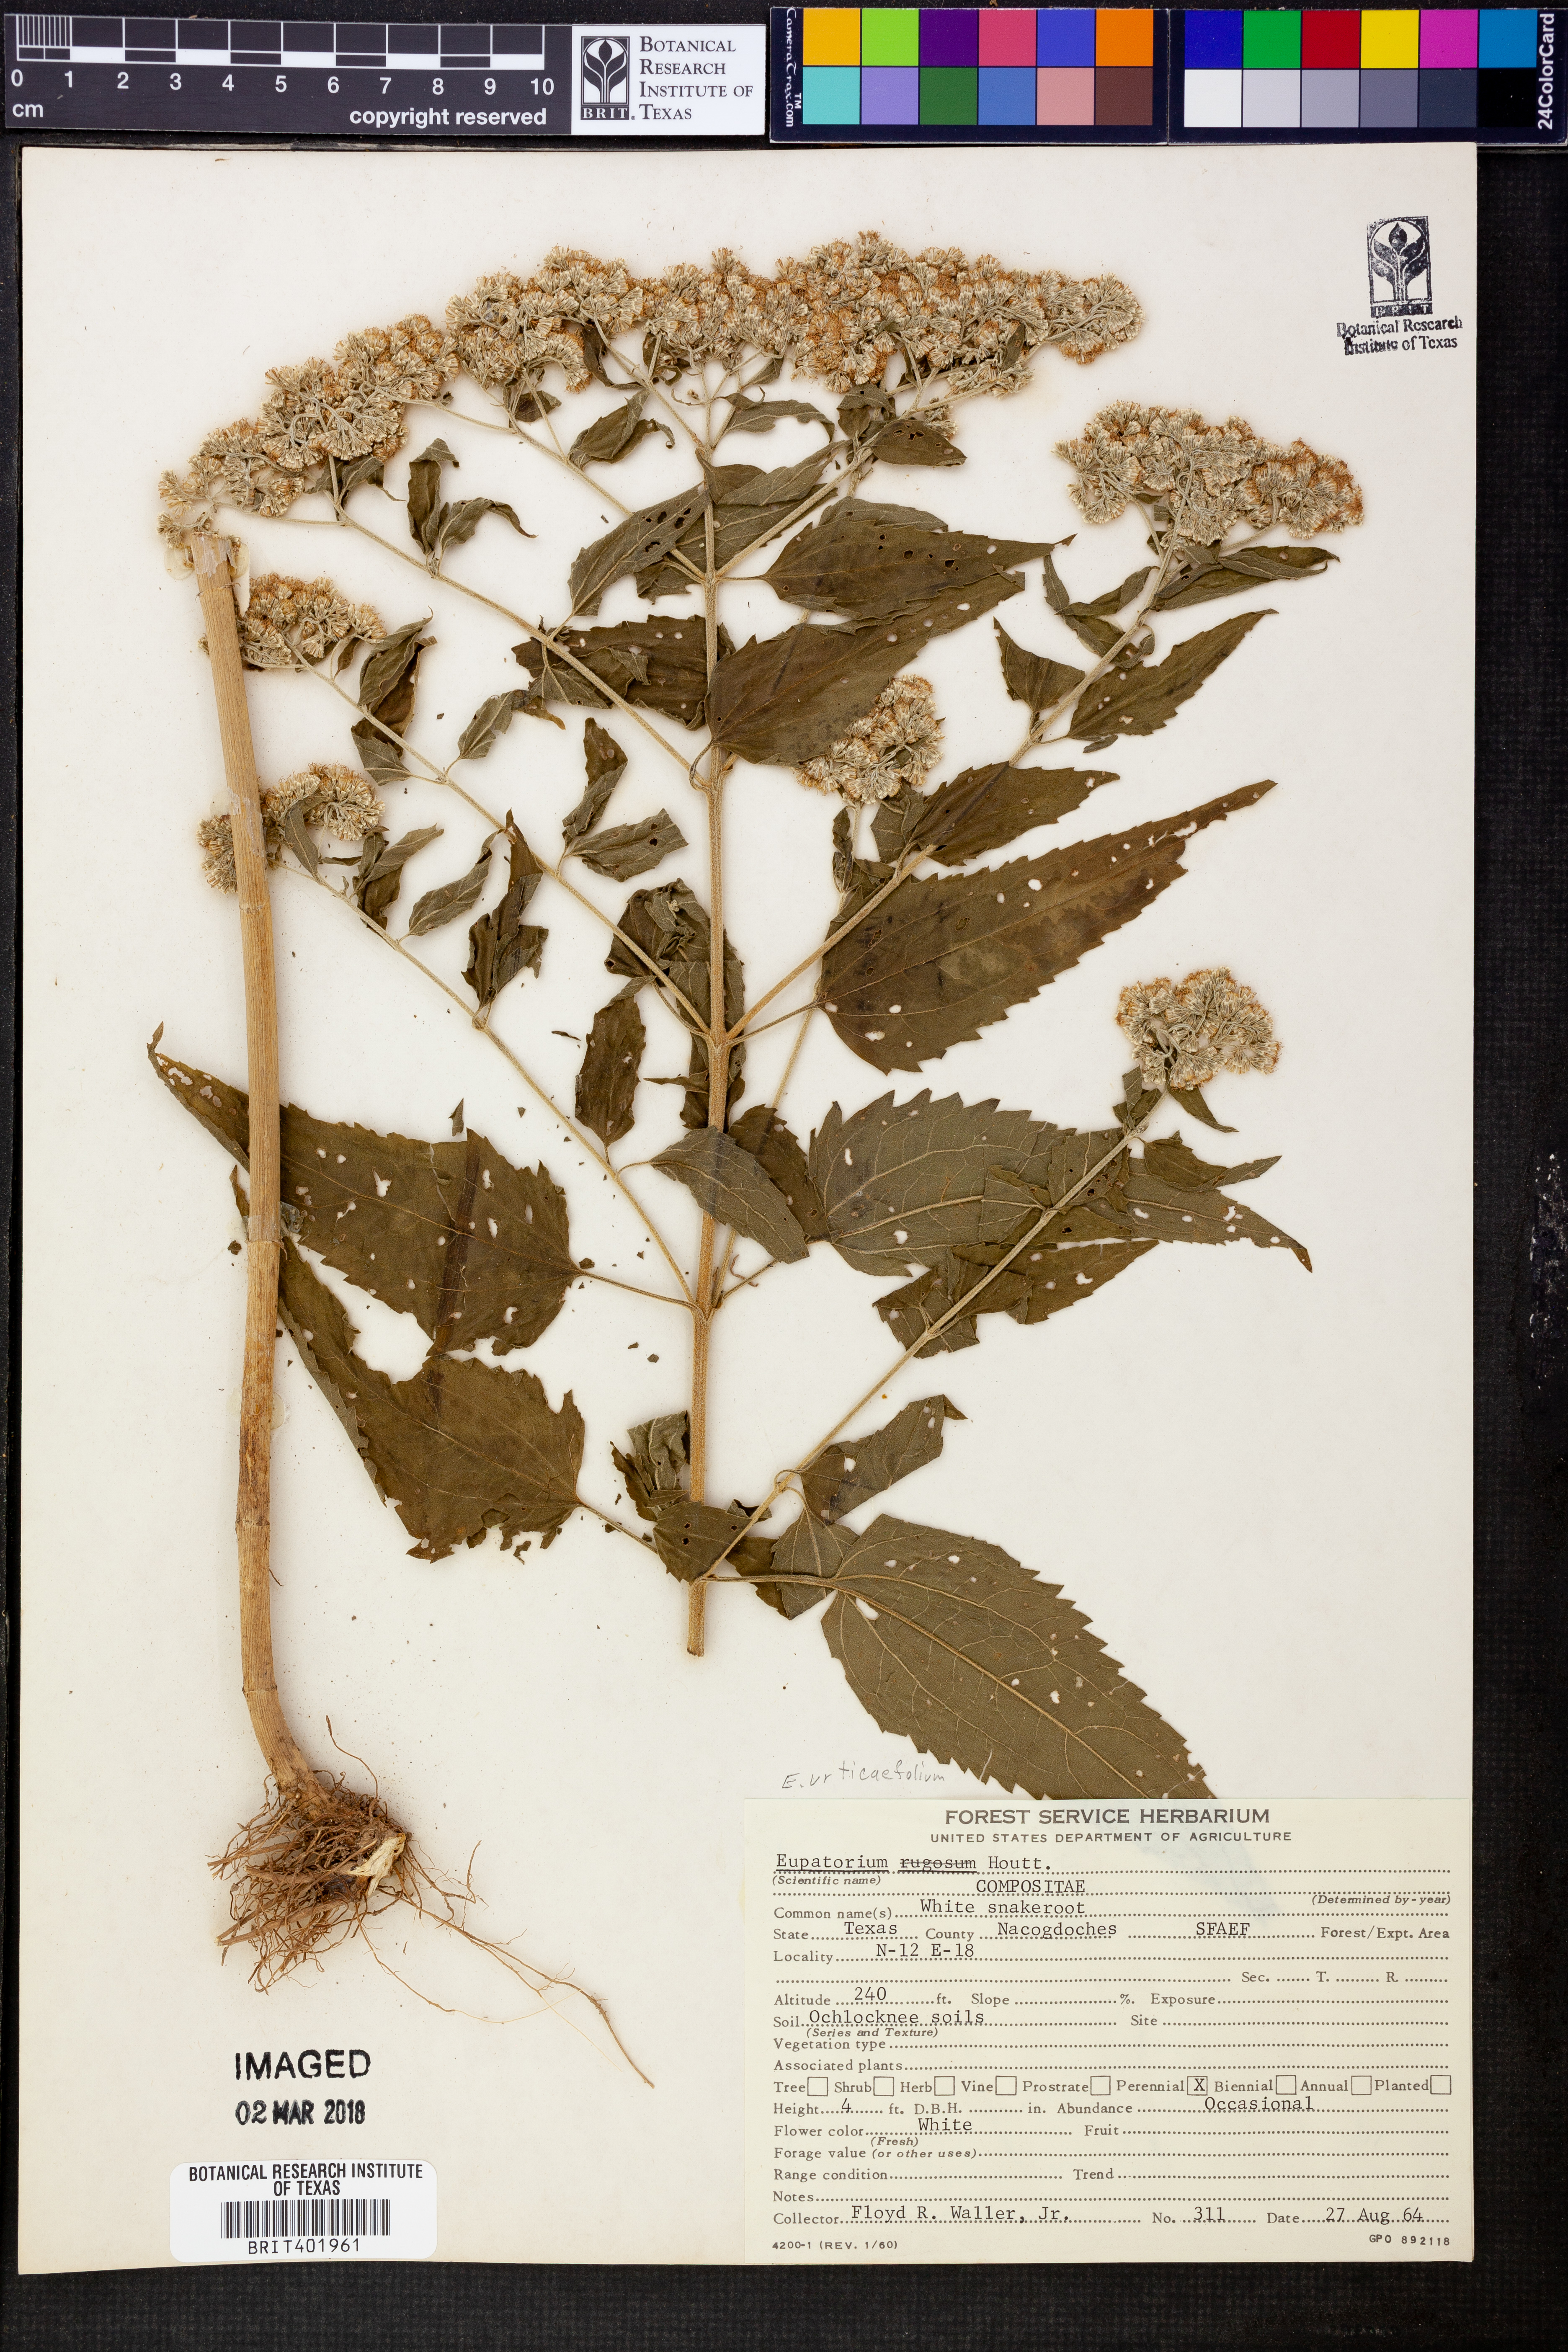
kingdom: Plantae
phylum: Tracheophyta
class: Magnoliopsida
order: Asterales
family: Asteraceae
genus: Ageratina
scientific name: Ageratina altissima
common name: White snakeroot
